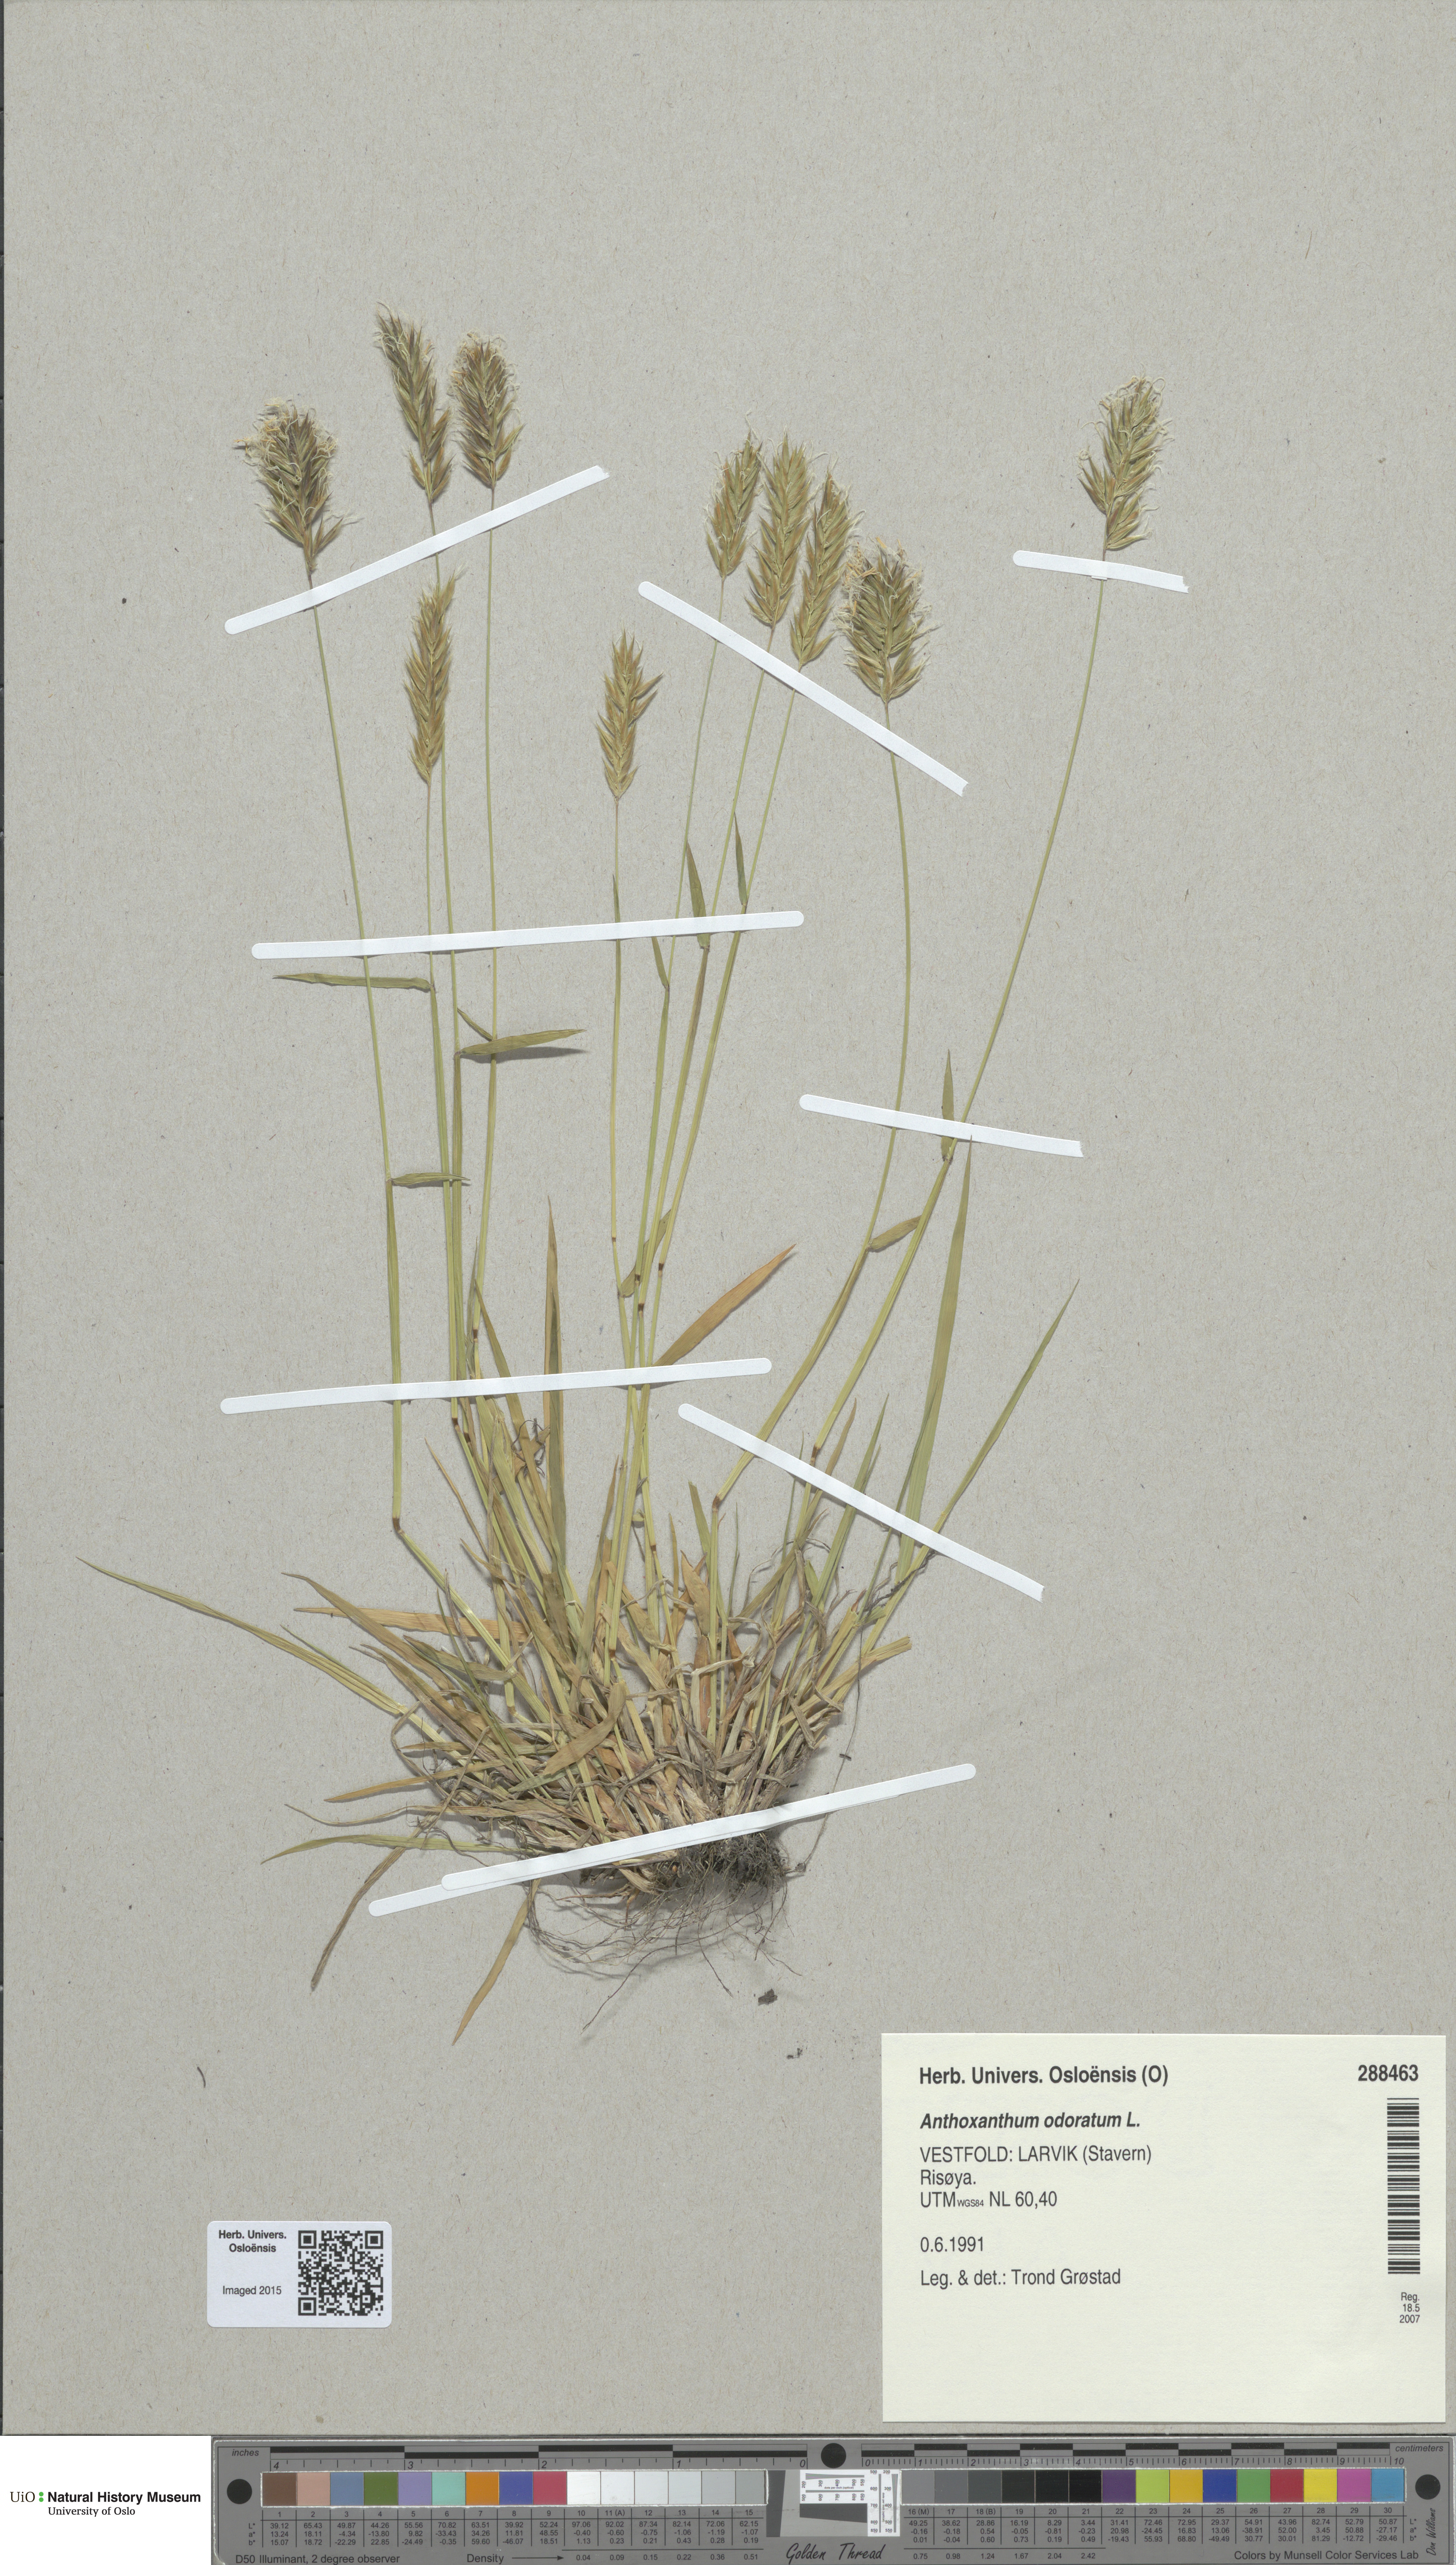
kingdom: Plantae
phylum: Tracheophyta
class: Liliopsida
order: Poales
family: Poaceae
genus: Anthoxanthum
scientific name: Anthoxanthum odoratum
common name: Sweet vernalgrass
